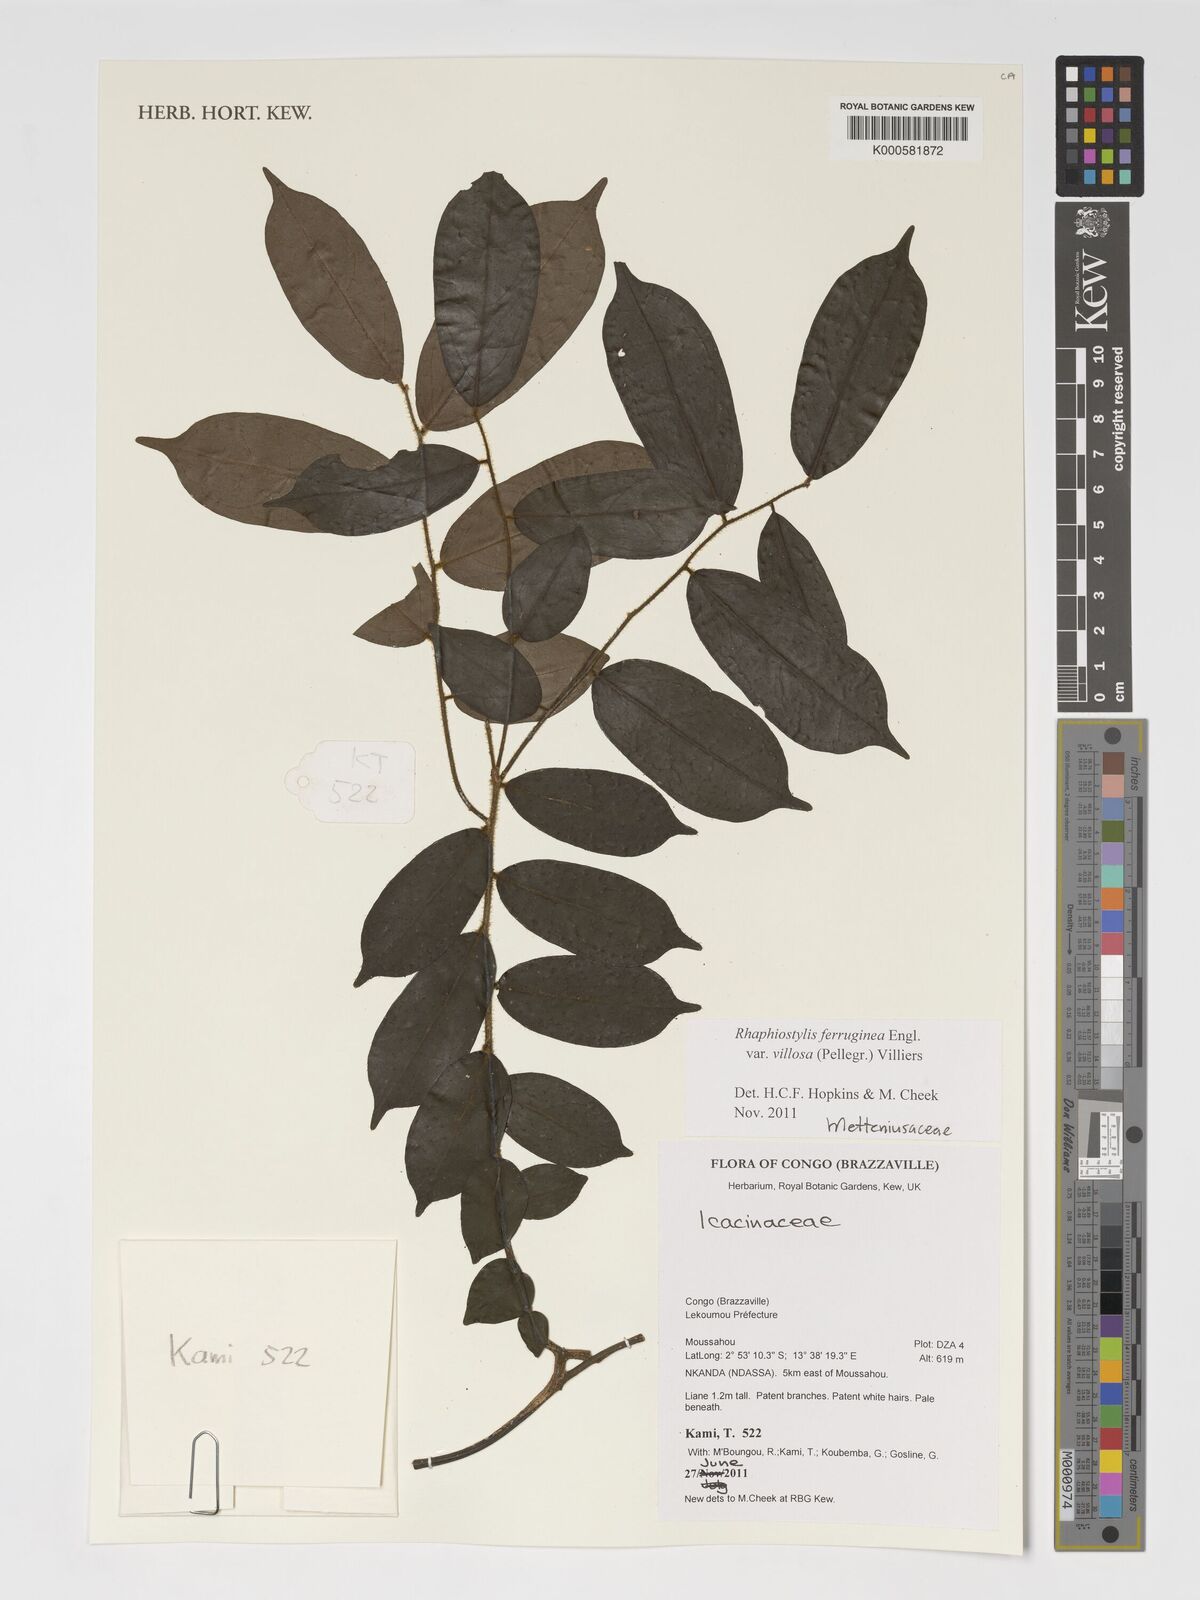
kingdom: Plantae
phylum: Tracheophyta
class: Magnoliopsida
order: Metteniusales
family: Metteniusaceae
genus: Rhaphiostylis
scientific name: Rhaphiostylis ferruginea
